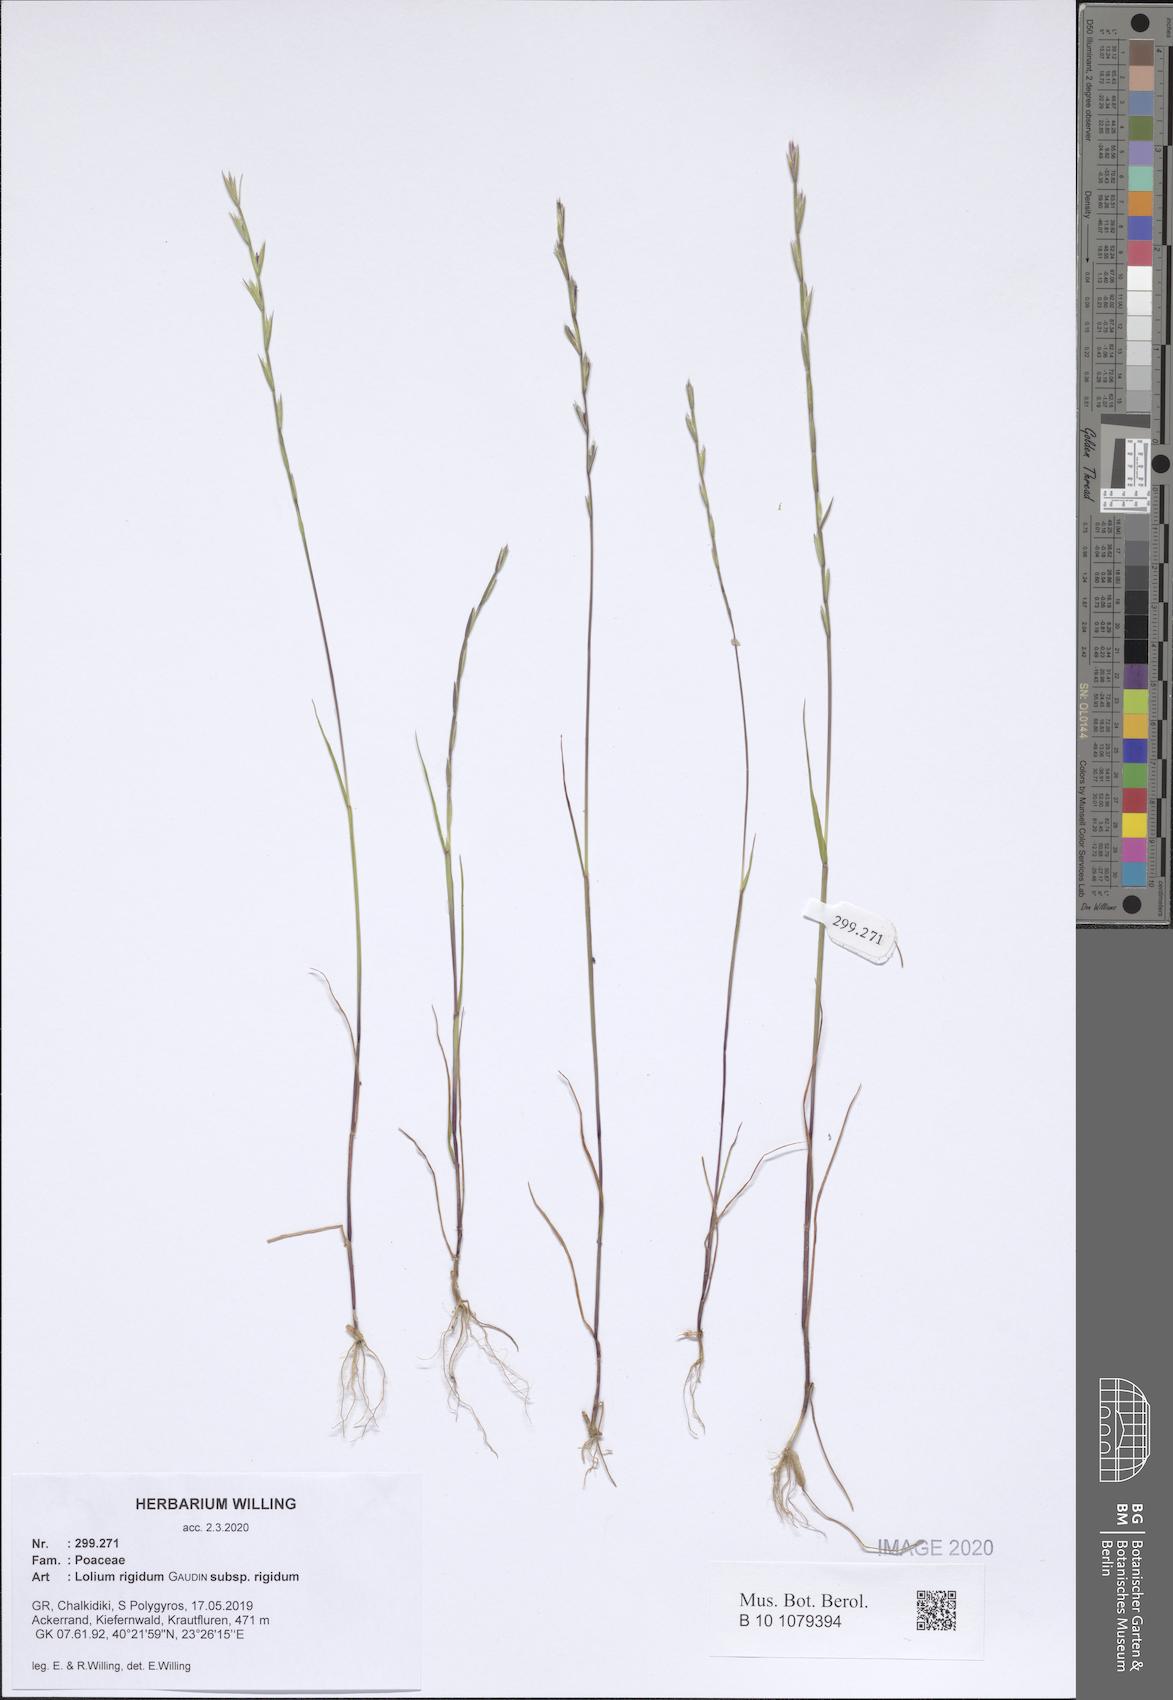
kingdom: Plantae
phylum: Tracheophyta
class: Liliopsida
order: Poales
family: Poaceae
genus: Lolium
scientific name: Lolium rigidum
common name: Wimmera ryegrass
